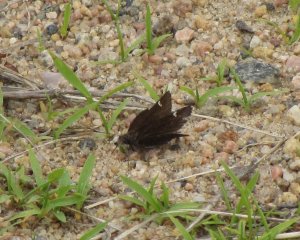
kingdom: Animalia
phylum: Arthropoda
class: Insecta
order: Lepidoptera
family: Hesperiidae
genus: Mastor
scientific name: Mastor vialis
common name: Common Roadside-Skipper
